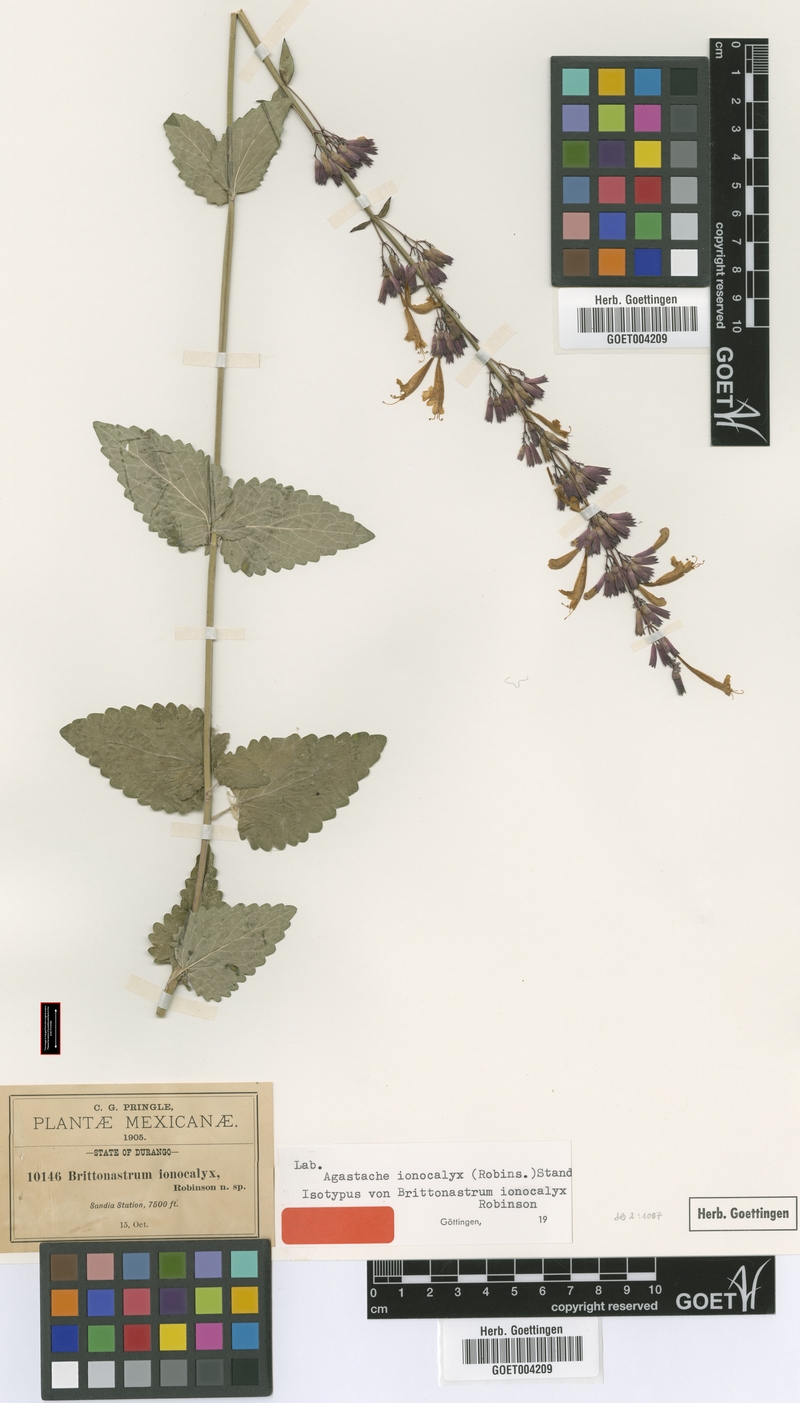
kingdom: Plantae
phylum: Tracheophyta
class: Magnoliopsida
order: Lamiales
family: Lamiaceae
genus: Agastache
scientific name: Agastache pallida
